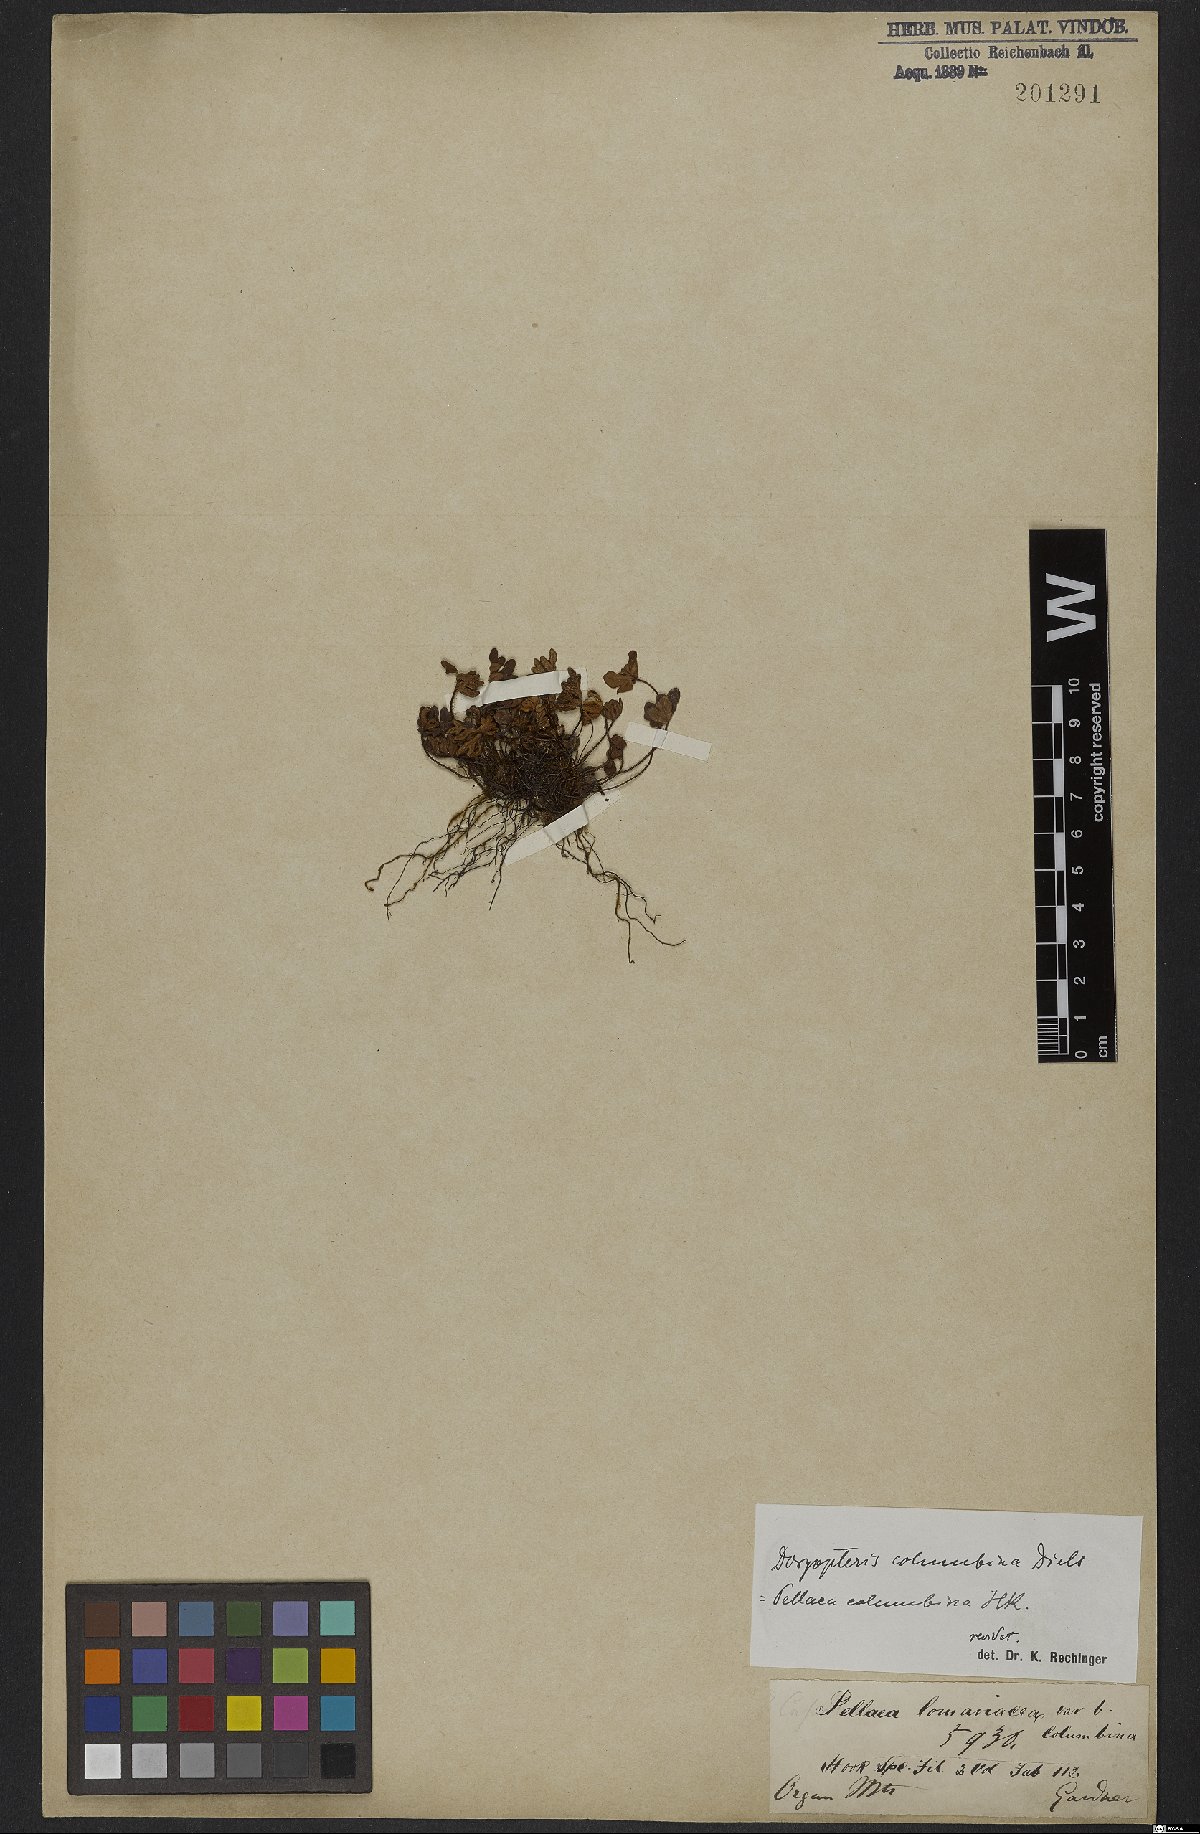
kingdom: Plantae
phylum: Tracheophyta
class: Polypodiopsida
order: Polypodiales
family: Pteridaceae
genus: Lytoneuron
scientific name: Lytoneuron columbinum
